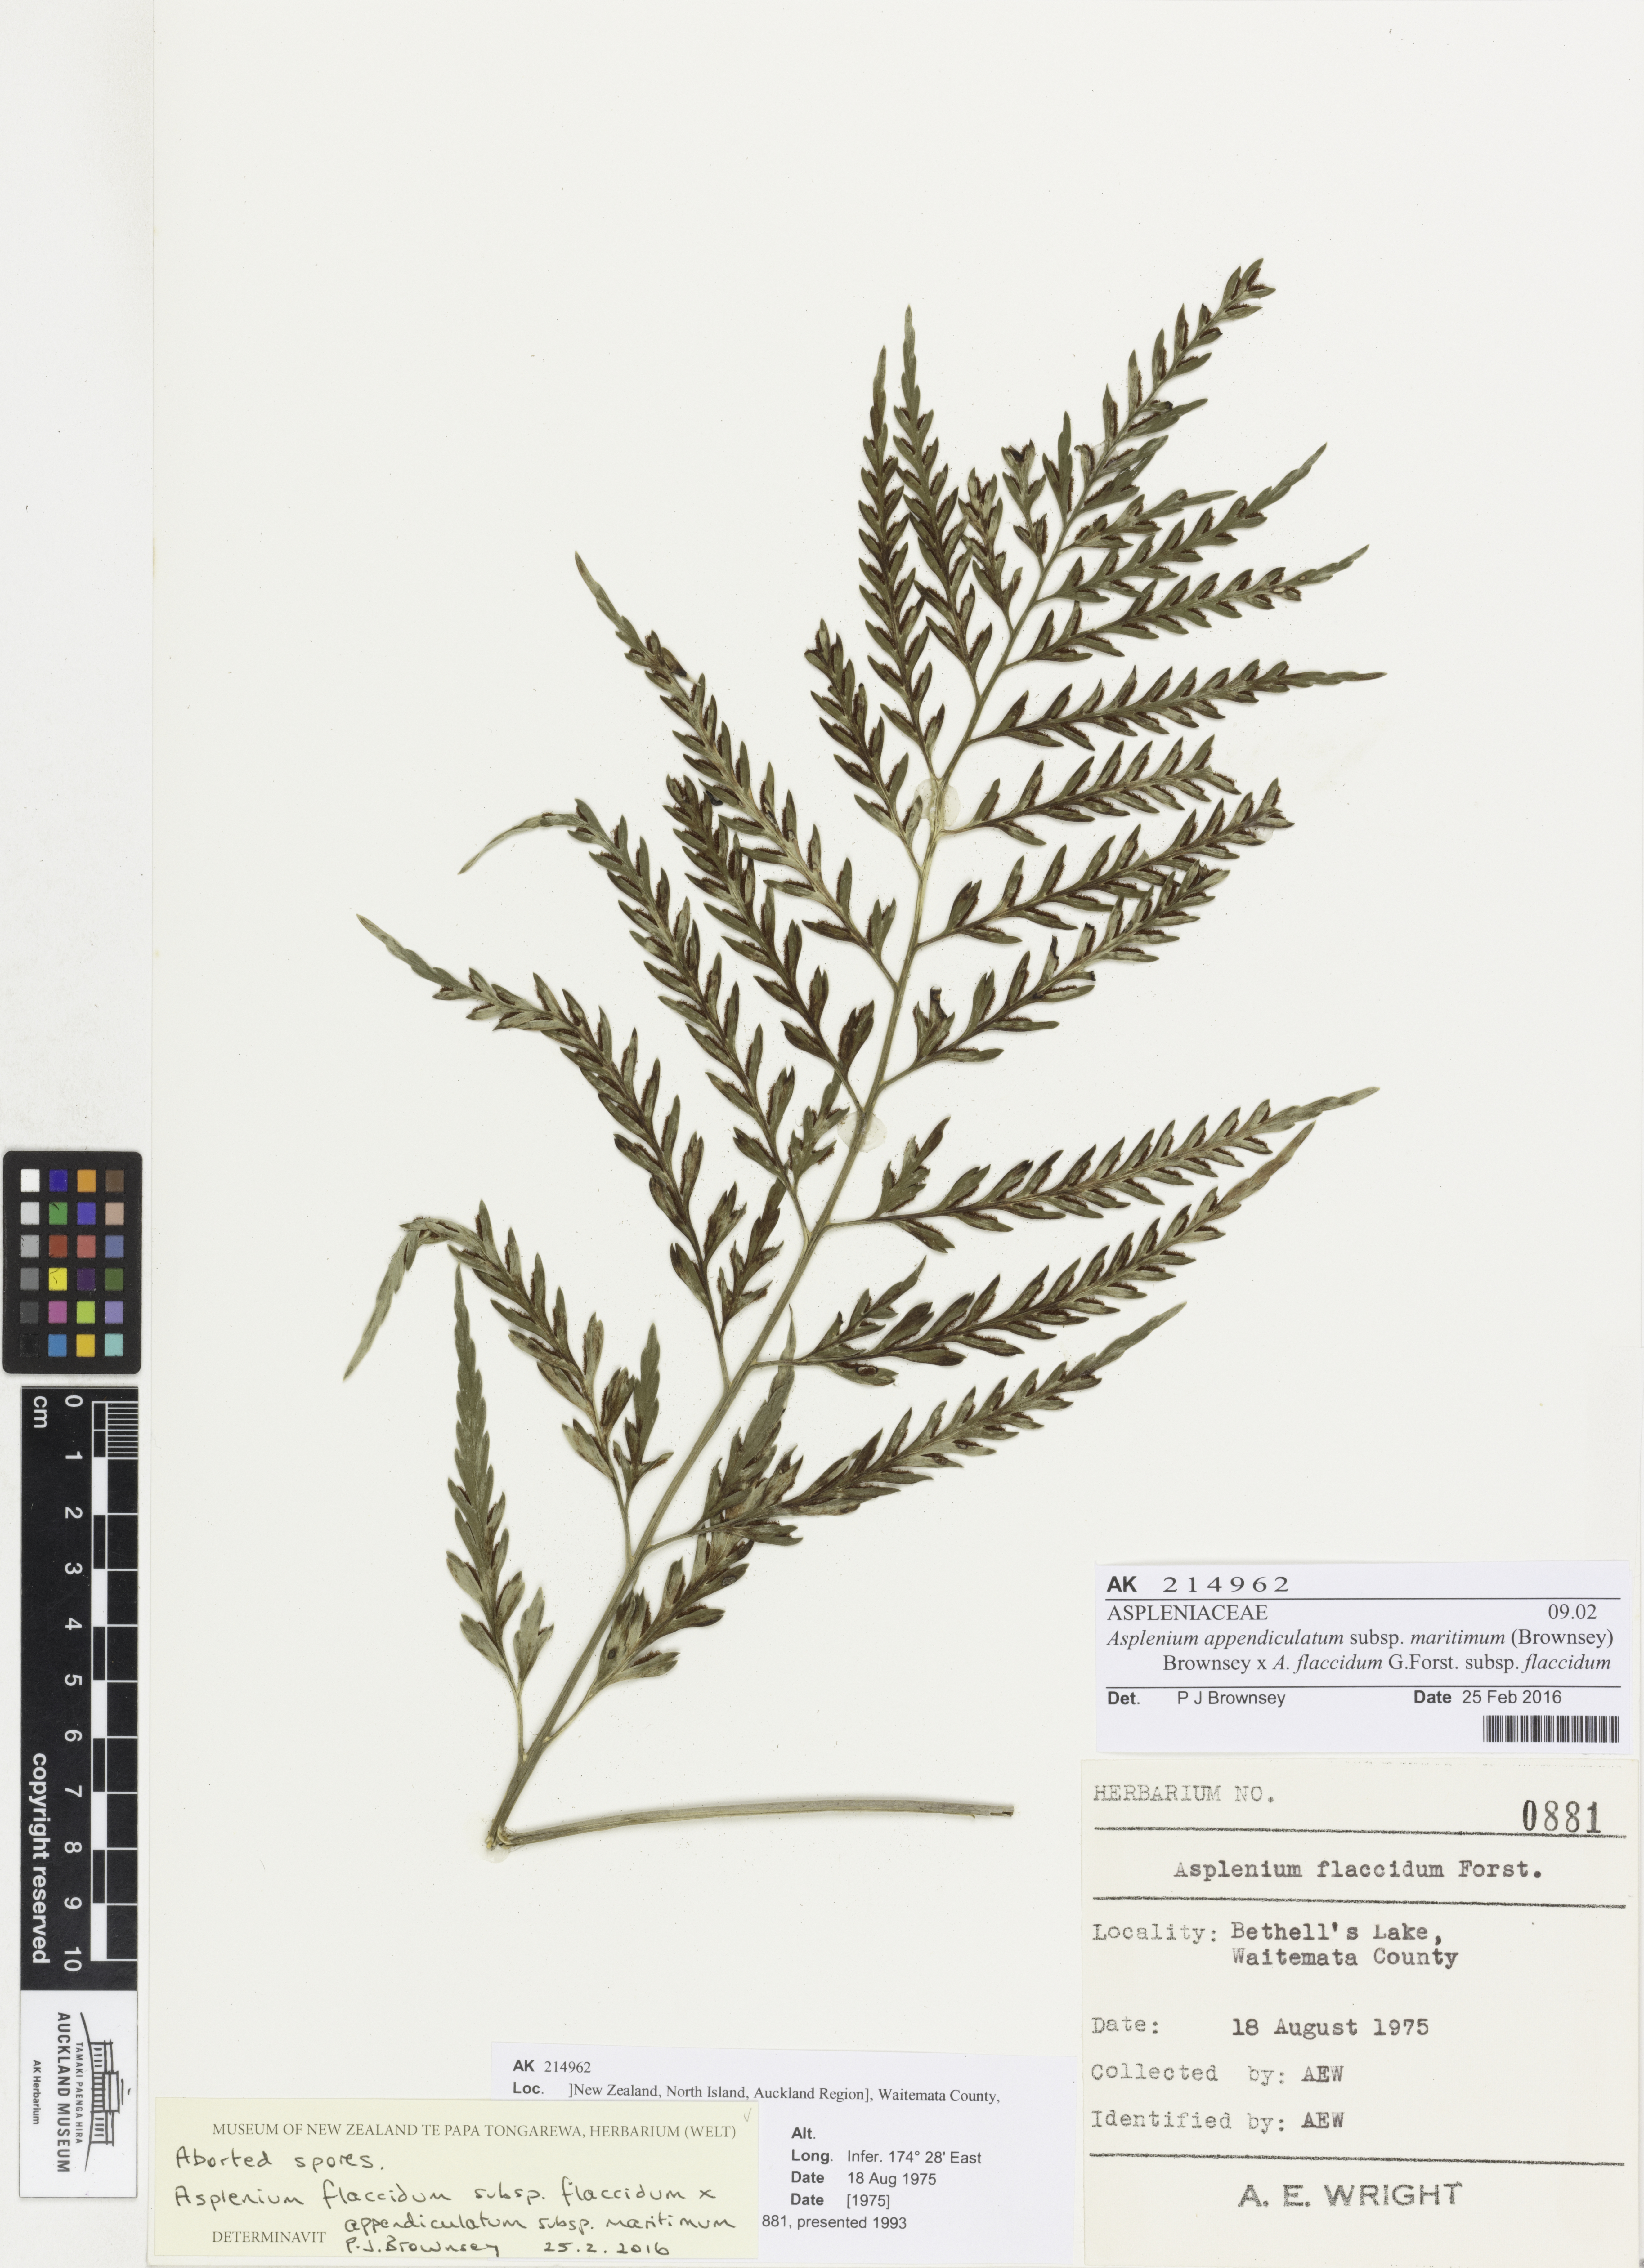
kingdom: Plantae
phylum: Tracheophyta
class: Polypodiopsida
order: Polypodiales
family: Aspleniaceae
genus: Asplenium
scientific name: Asplenium
